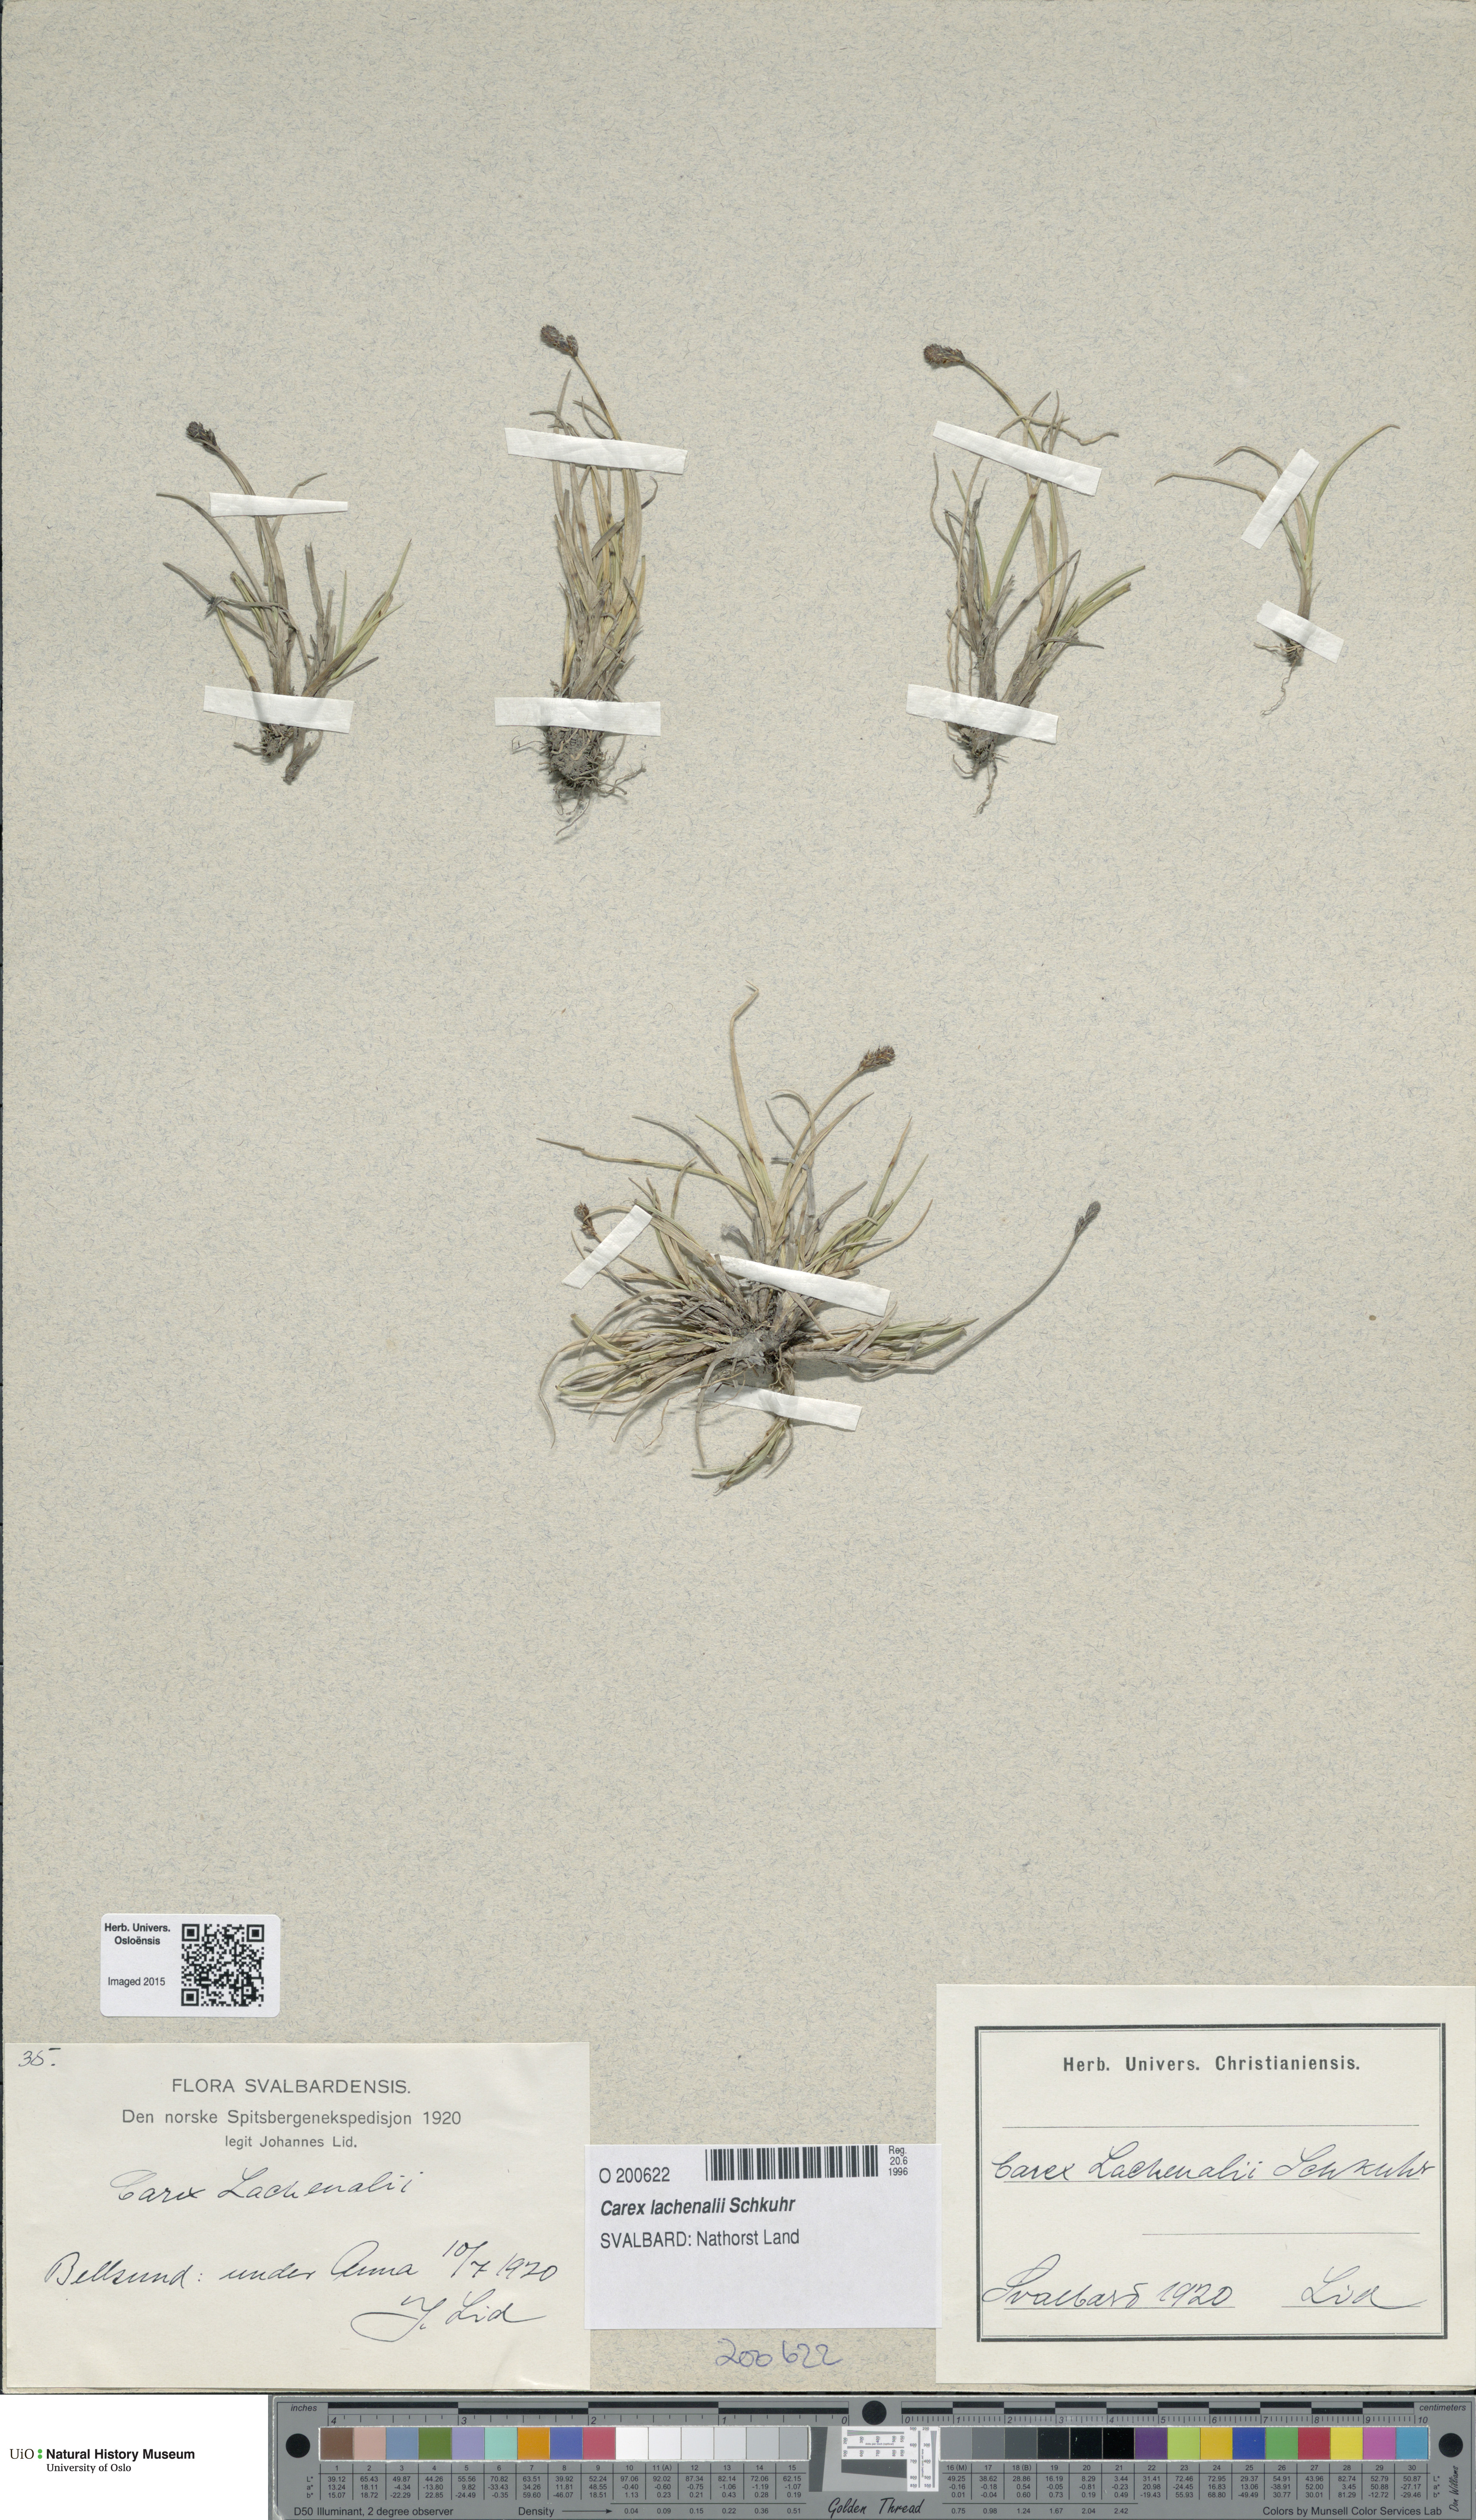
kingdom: Plantae
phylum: Tracheophyta
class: Liliopsida
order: Poales
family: Cyperaceae
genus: Carex
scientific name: Carex lachenalii
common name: Hare's-foot sedge
